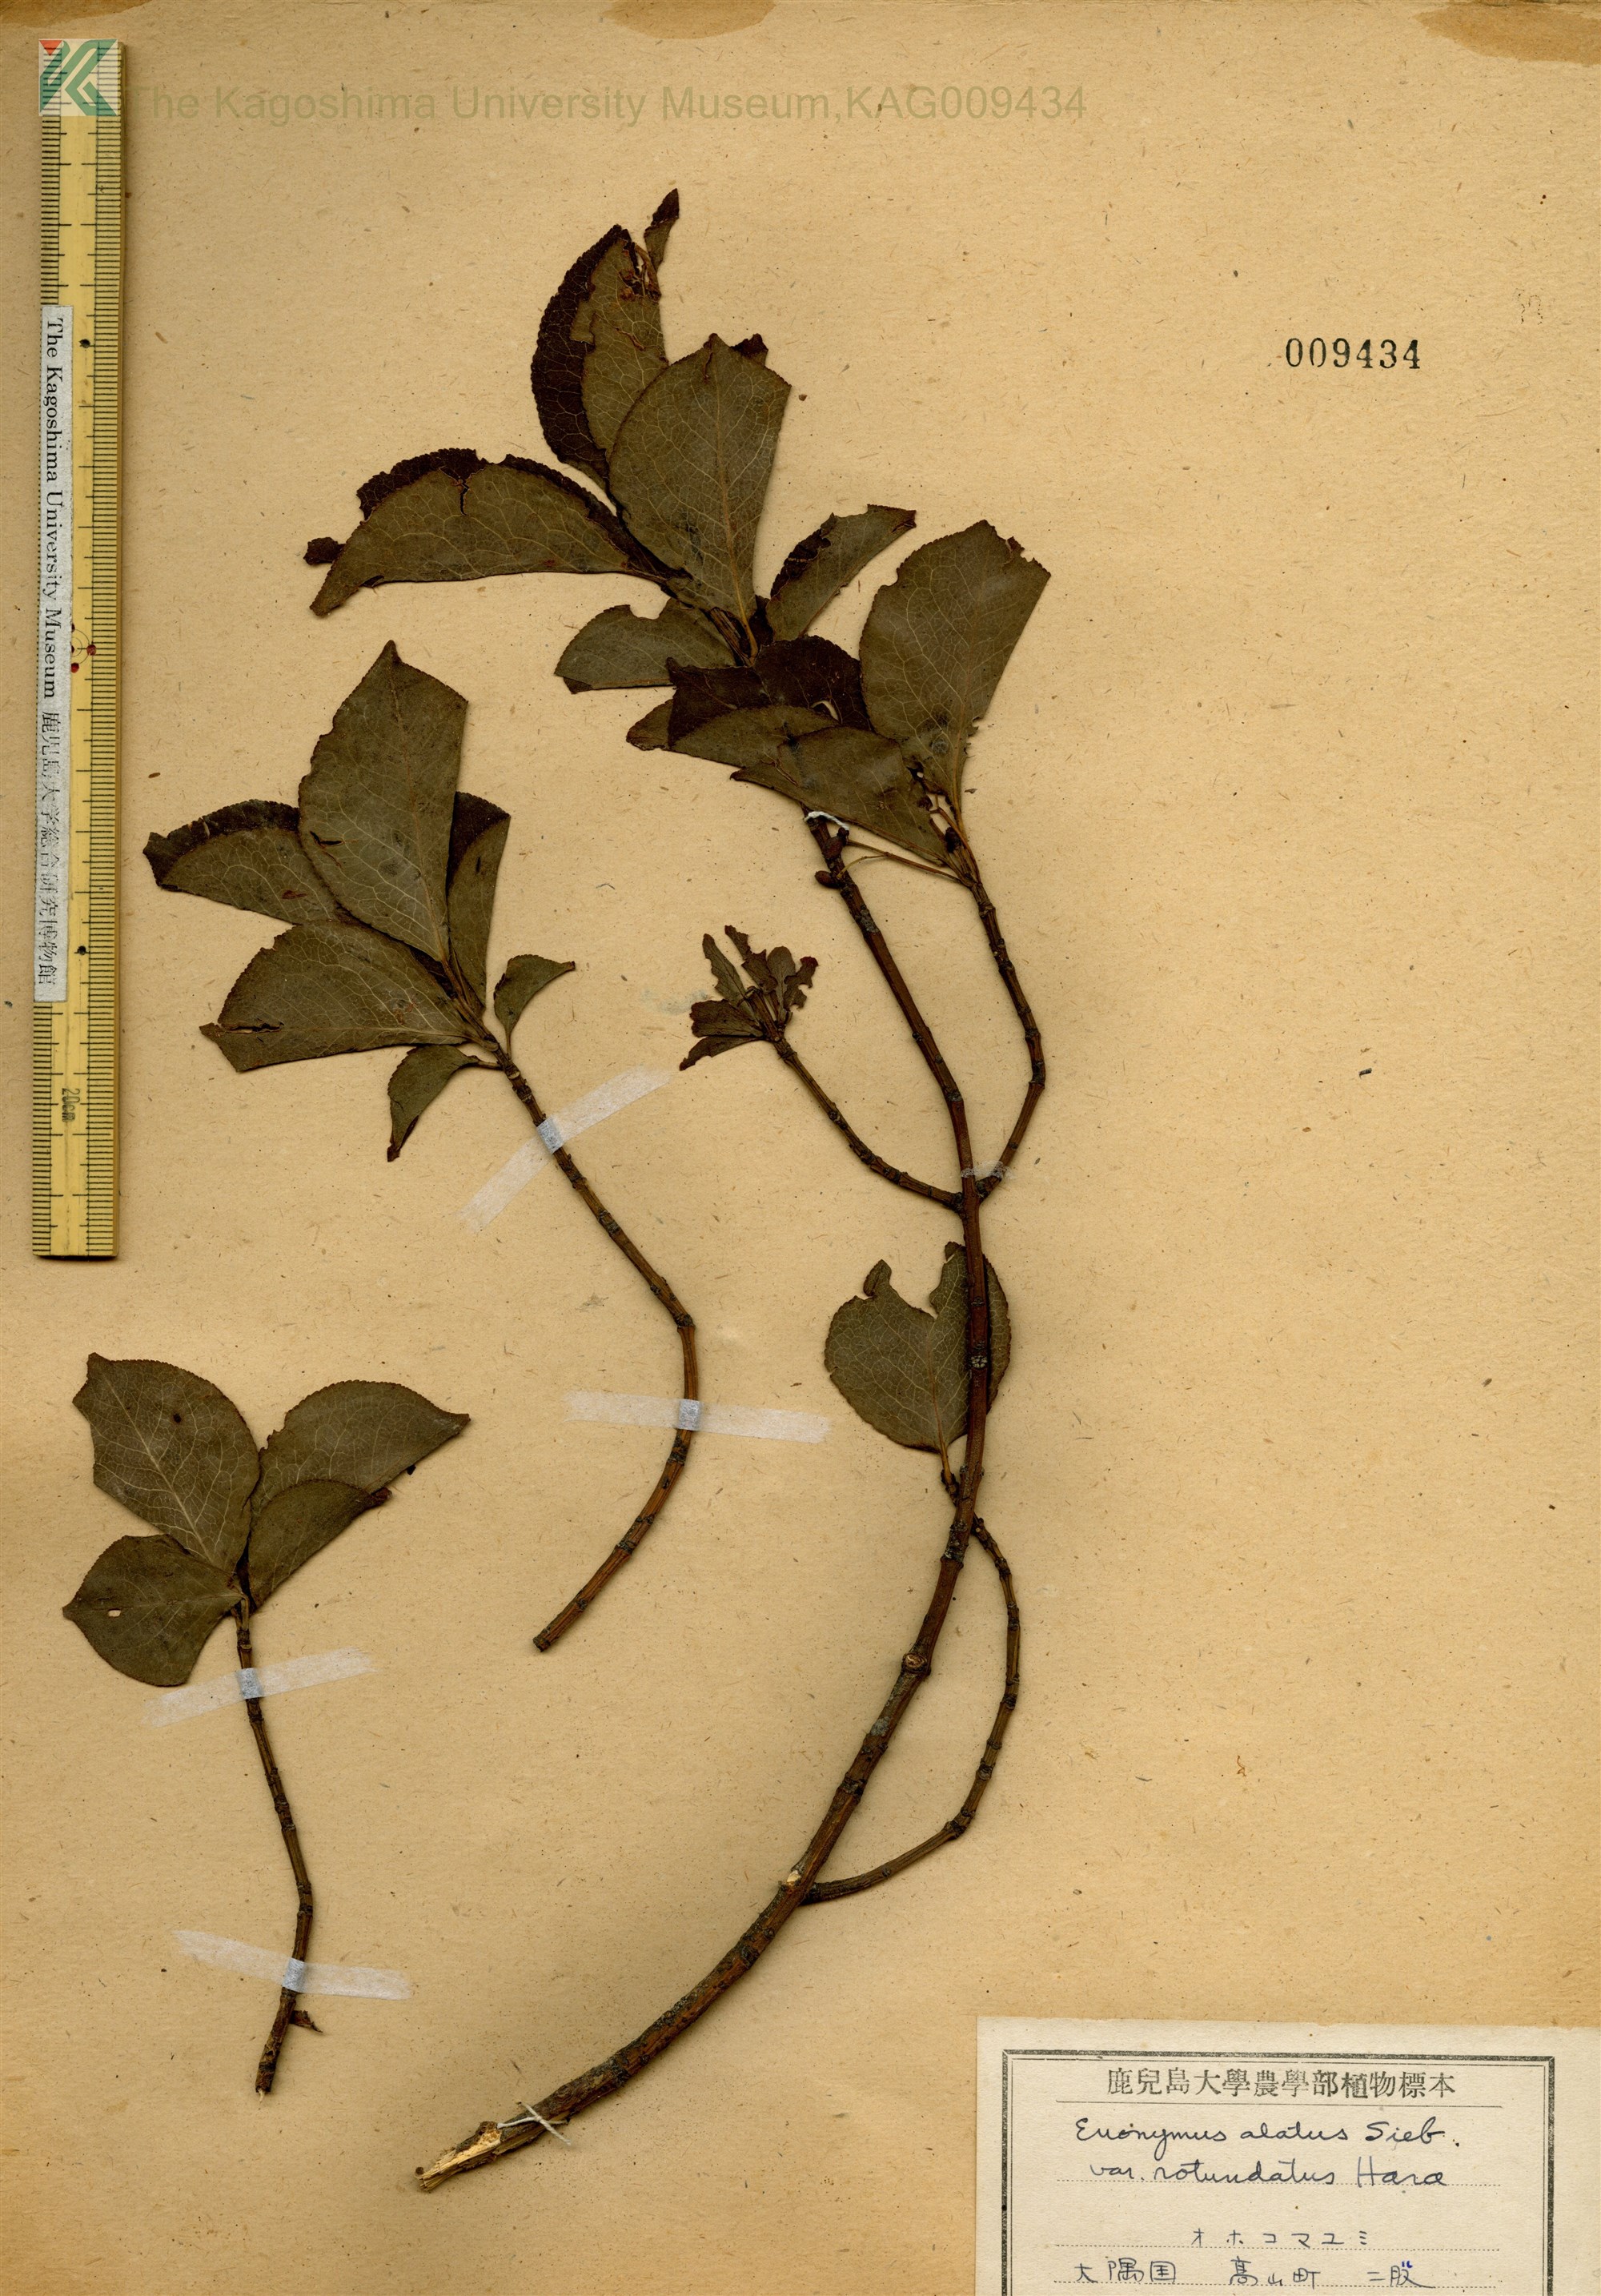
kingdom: Plantae
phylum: Tracheophyta
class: Magnoliopsida
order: Celastrales
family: Celastraceae
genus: Euonymus
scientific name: Euonymus alatus
